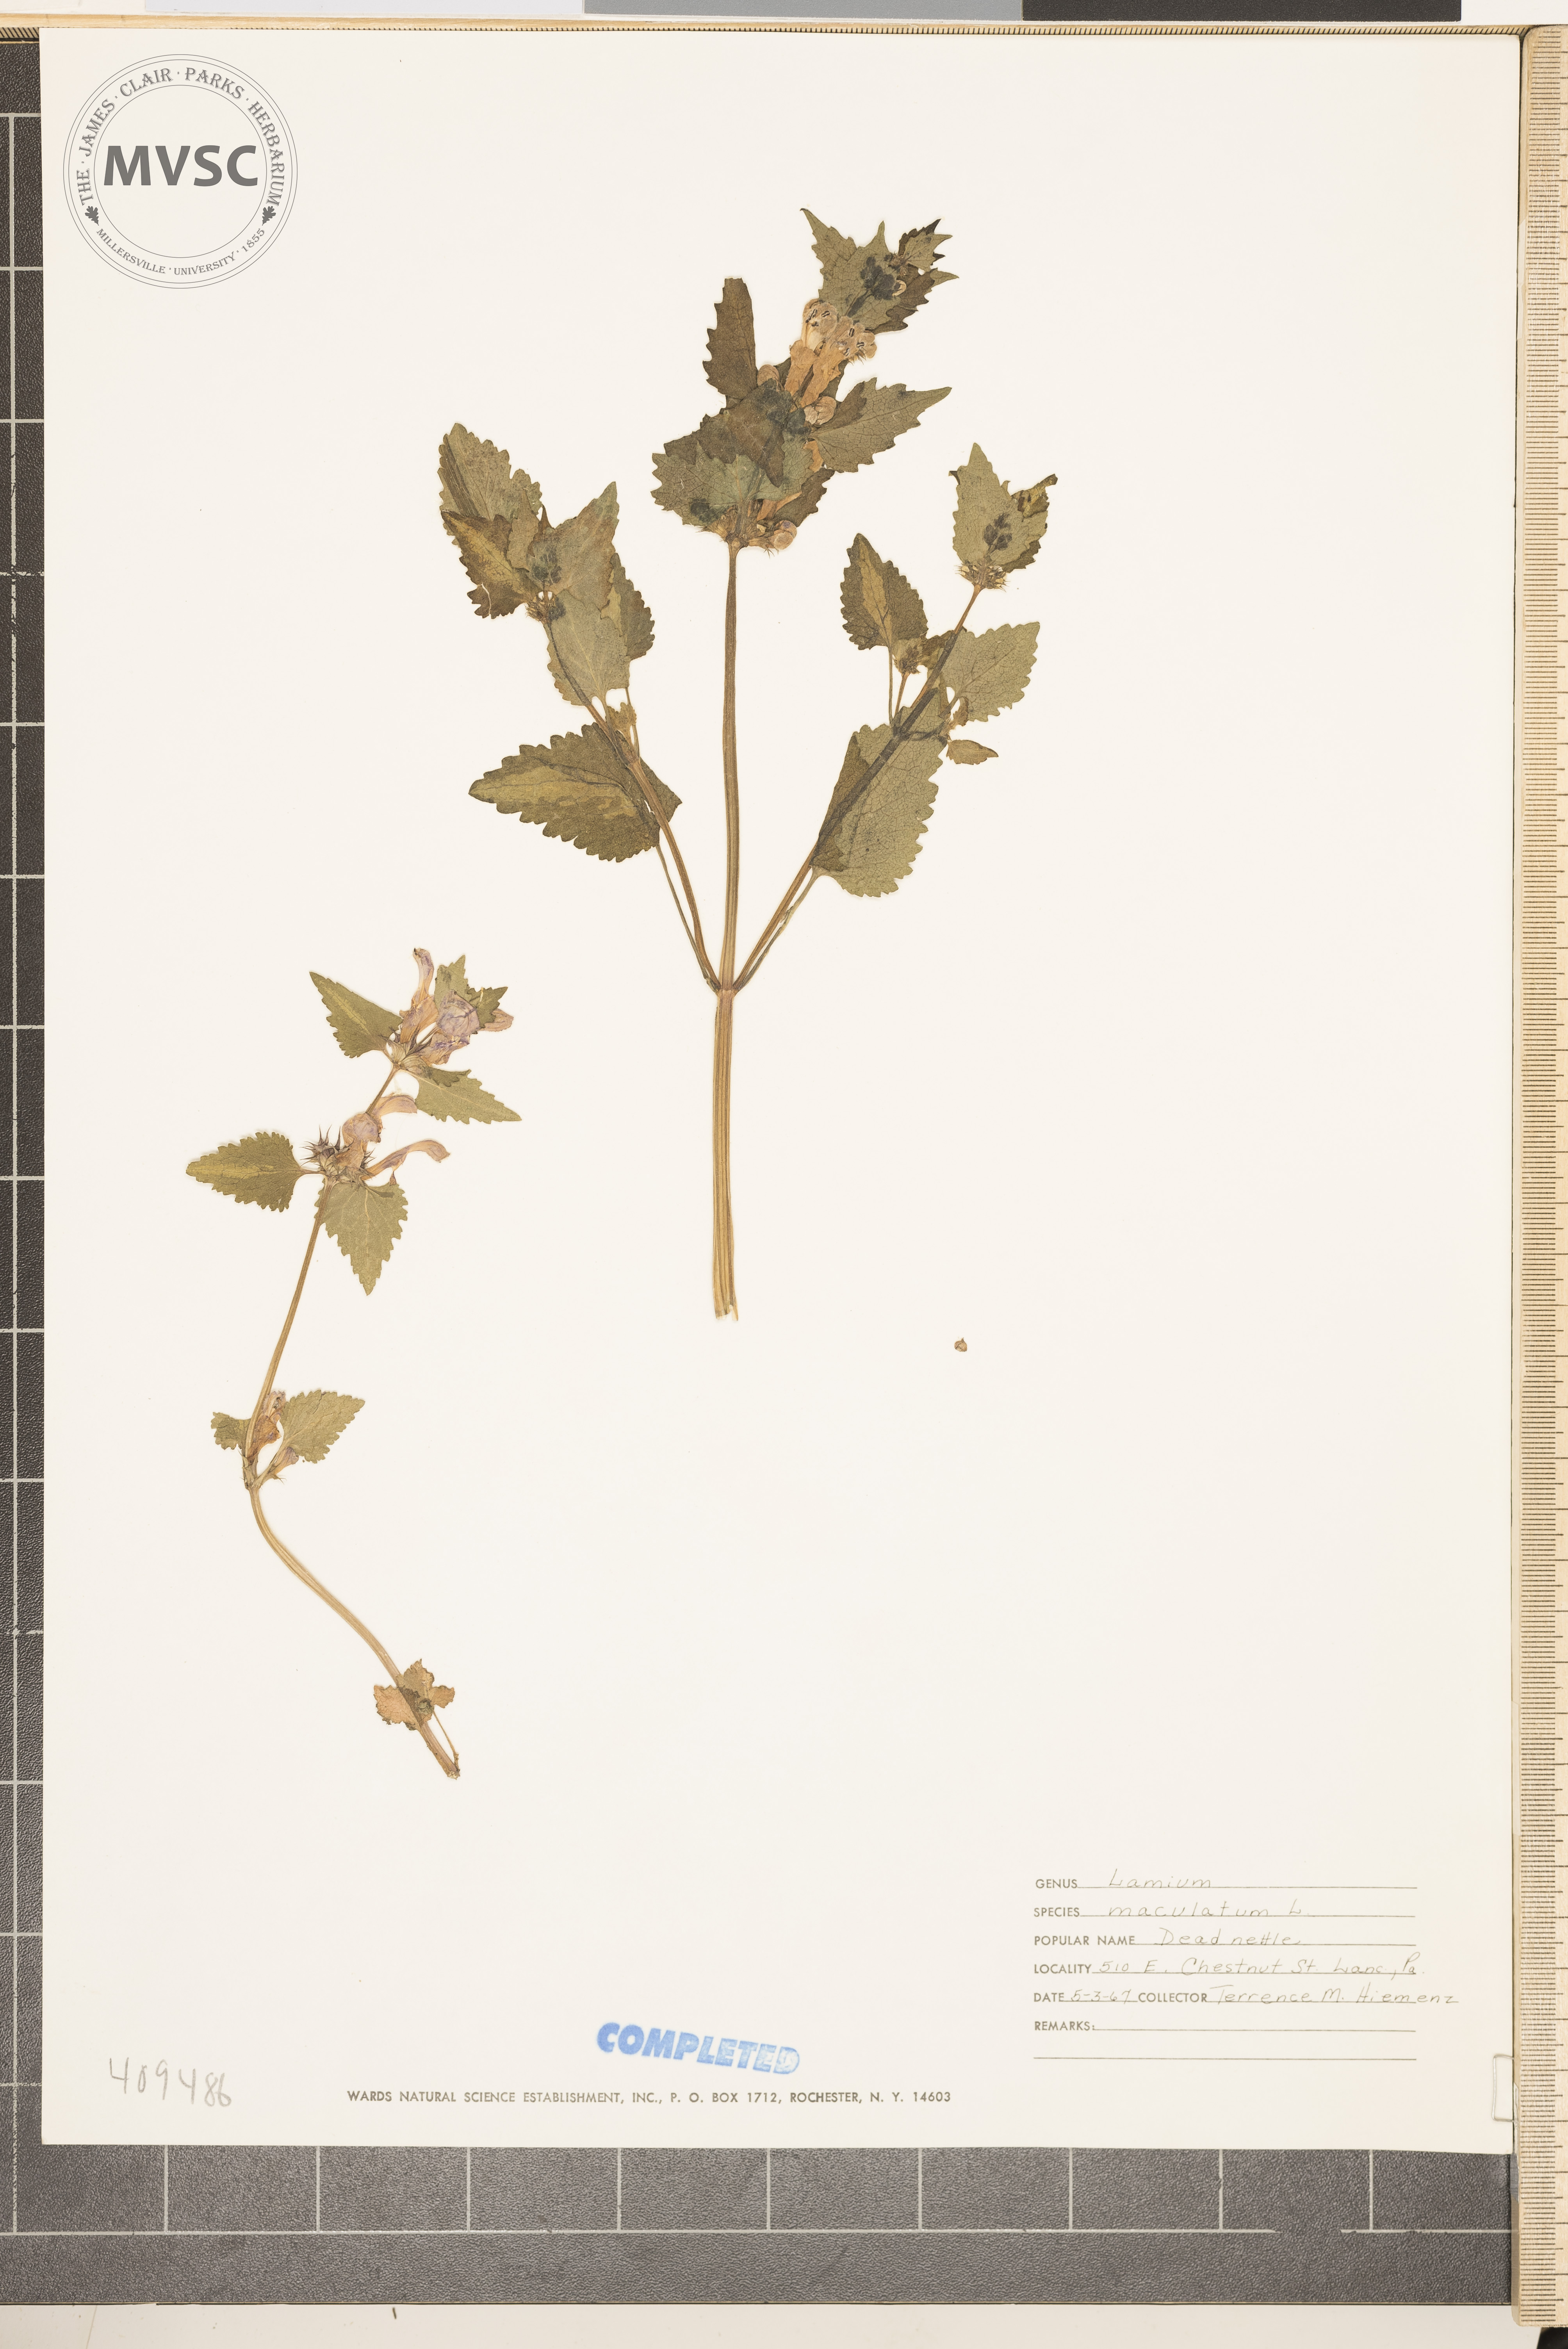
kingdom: Plantae
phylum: Tracheophyta
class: Magnoliopsida
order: Lamiales
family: Lamiaceae
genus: Lamium
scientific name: Lamium maculatum
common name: spotted dead-nettle
